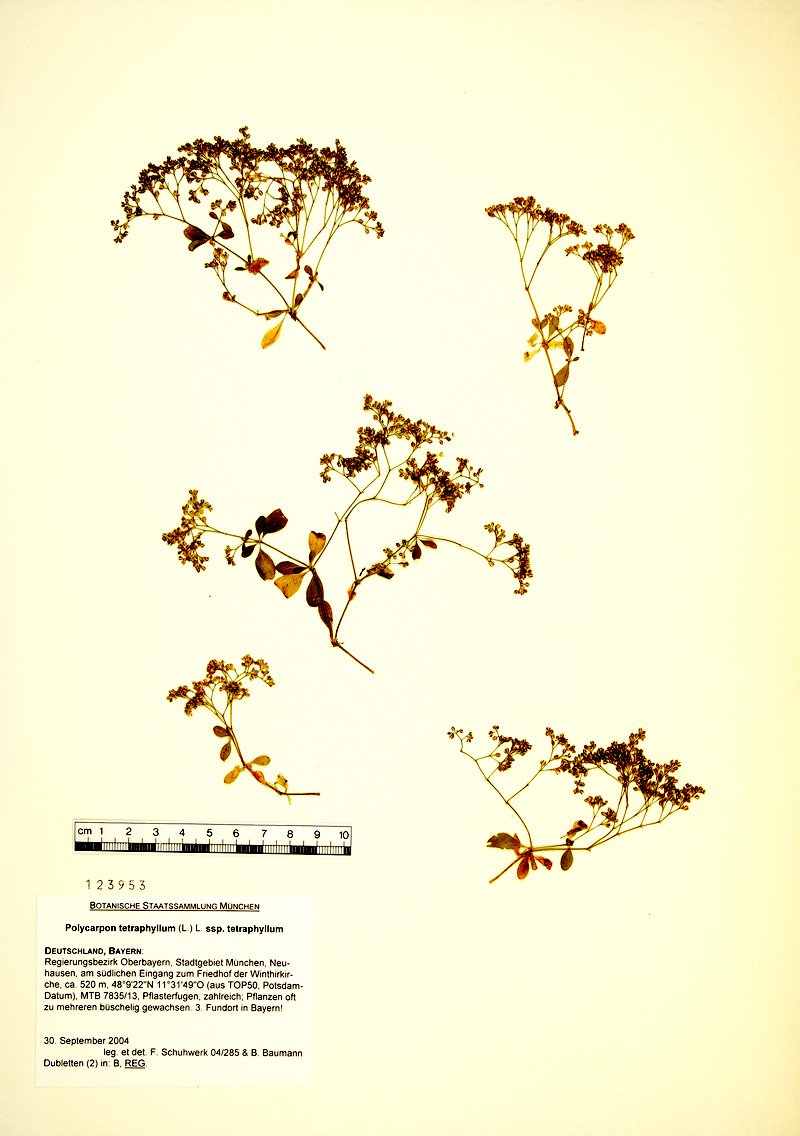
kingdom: Plantae
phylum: Tracheophyta
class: Magnoliopsida
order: Caryophyllales
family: Caryophyllaceae
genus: Polycarpon
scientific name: Polycarpon tetraphyllum
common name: Four-leaved all-seed
